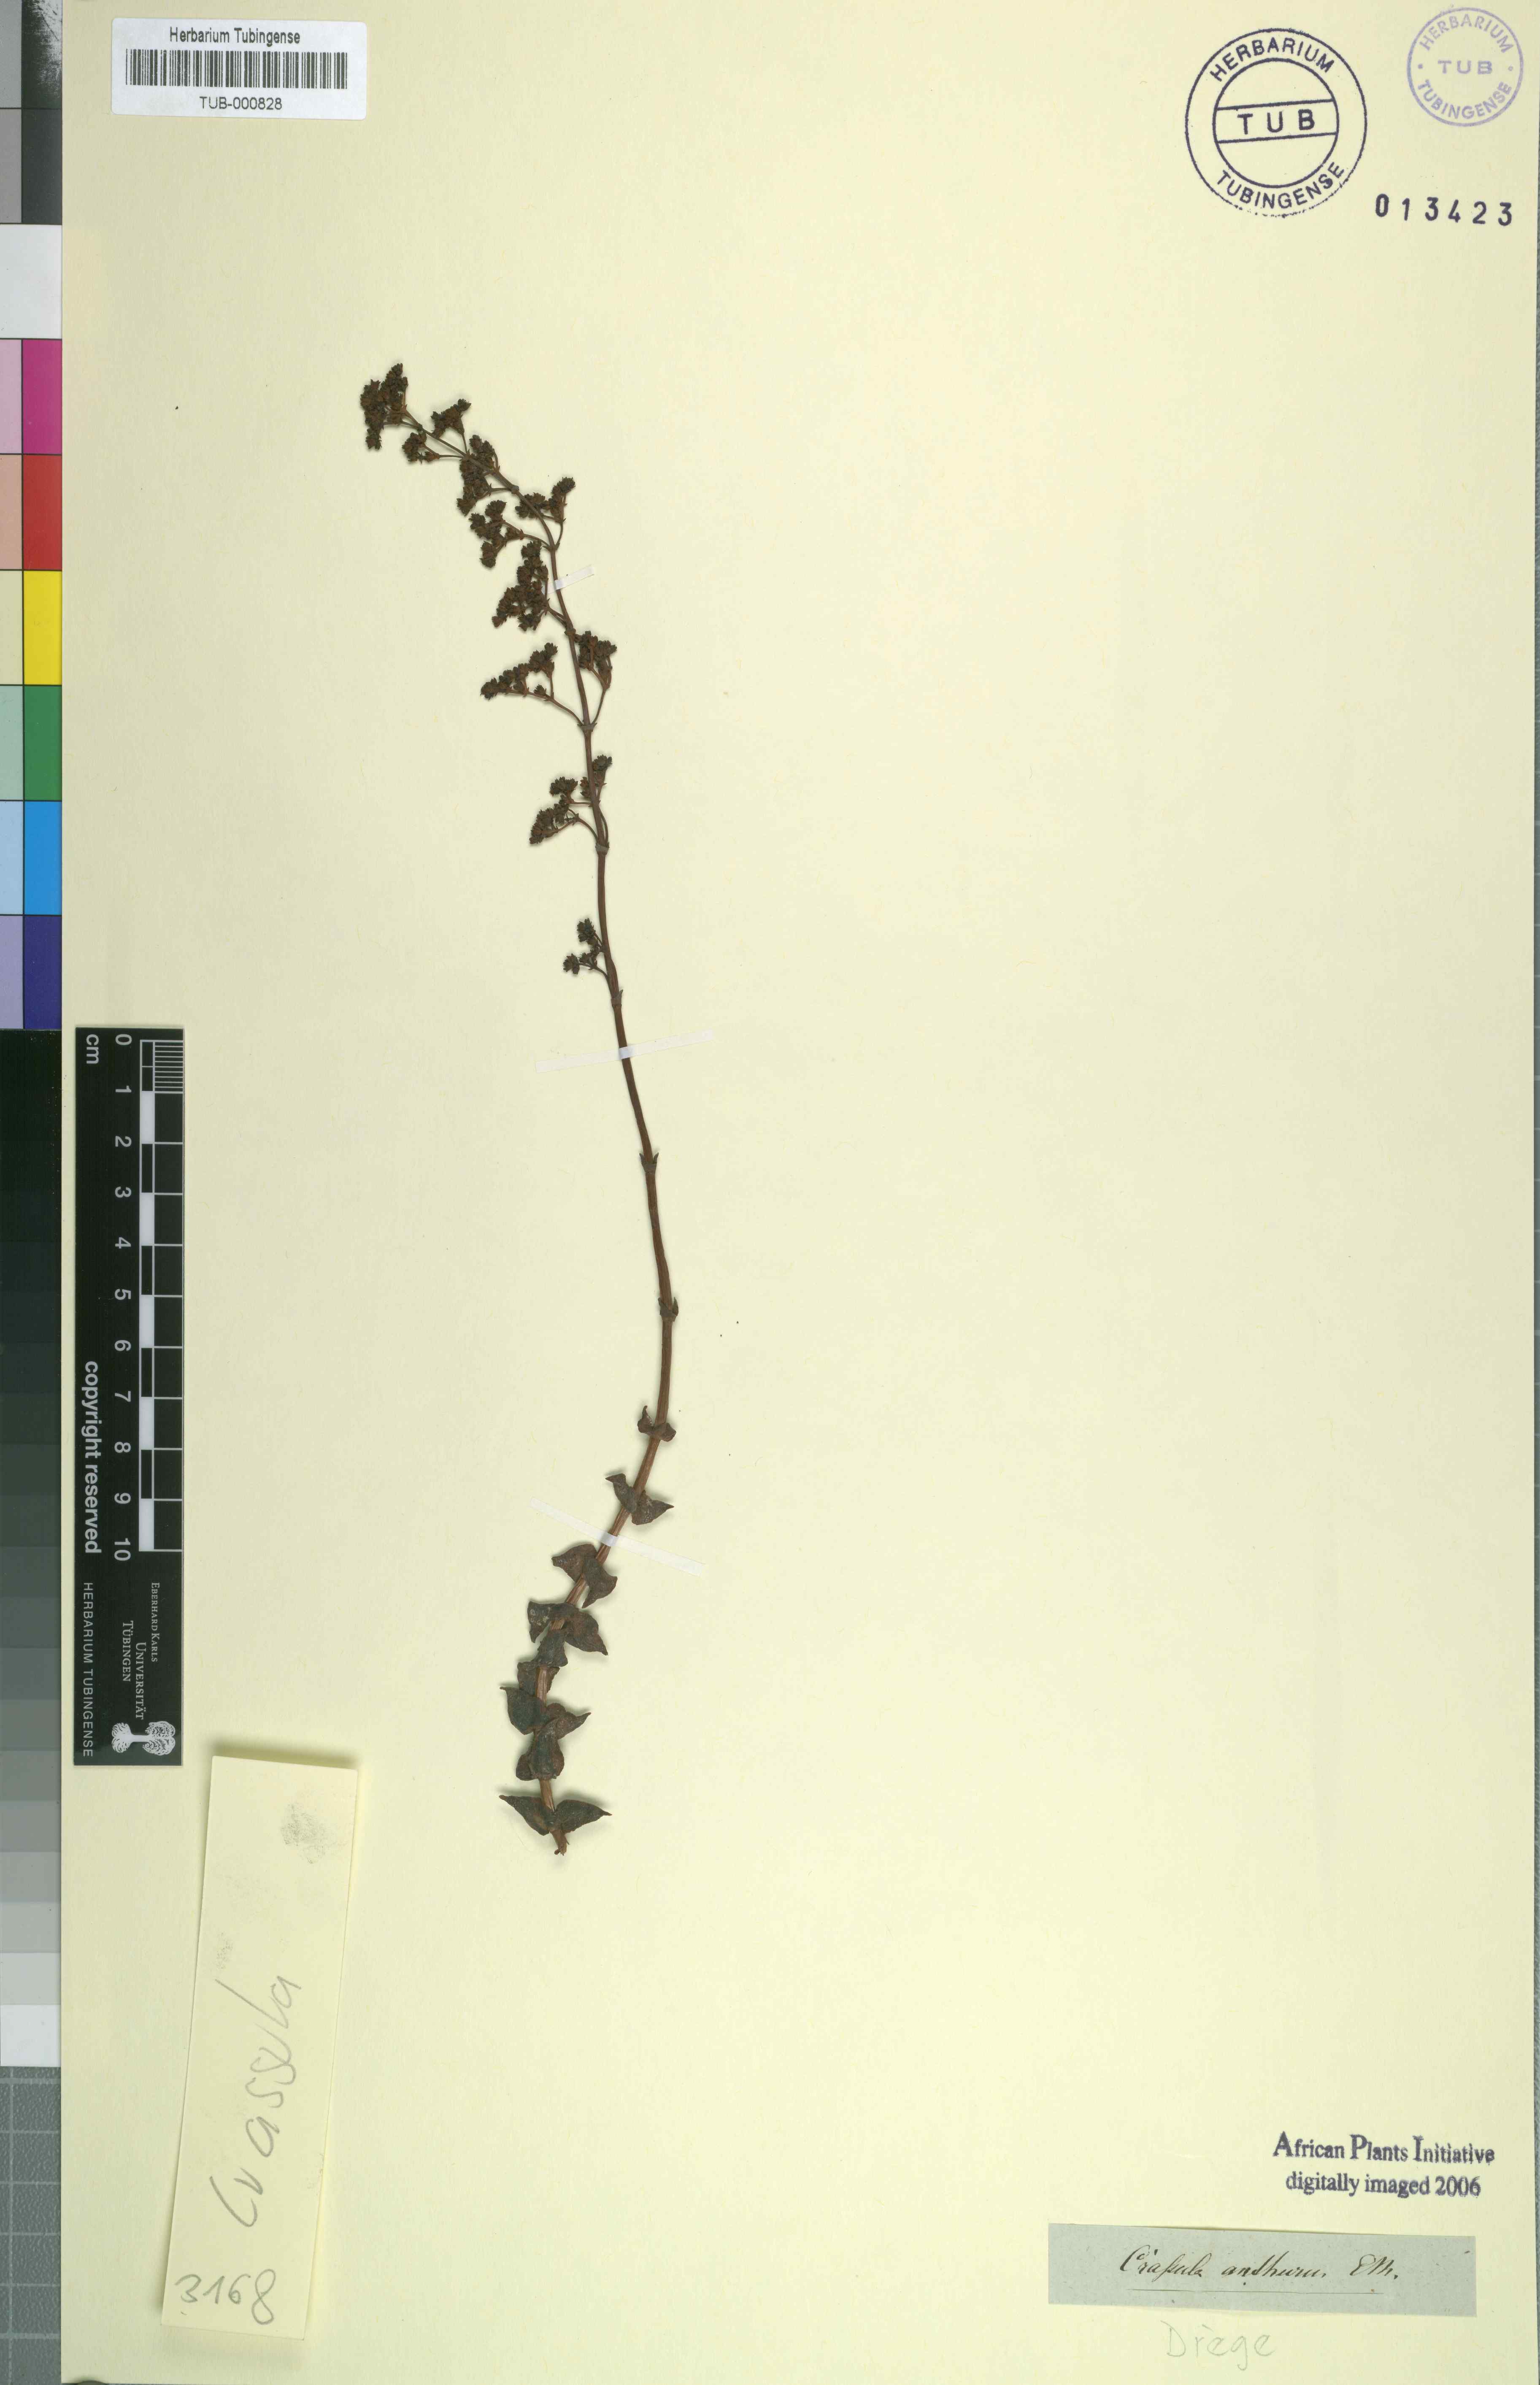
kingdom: Plantae
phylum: Tracheophyta
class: Magnoliopsida
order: Saxifragales
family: Crassulaceae
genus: Crassula
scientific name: Crassula perforata
